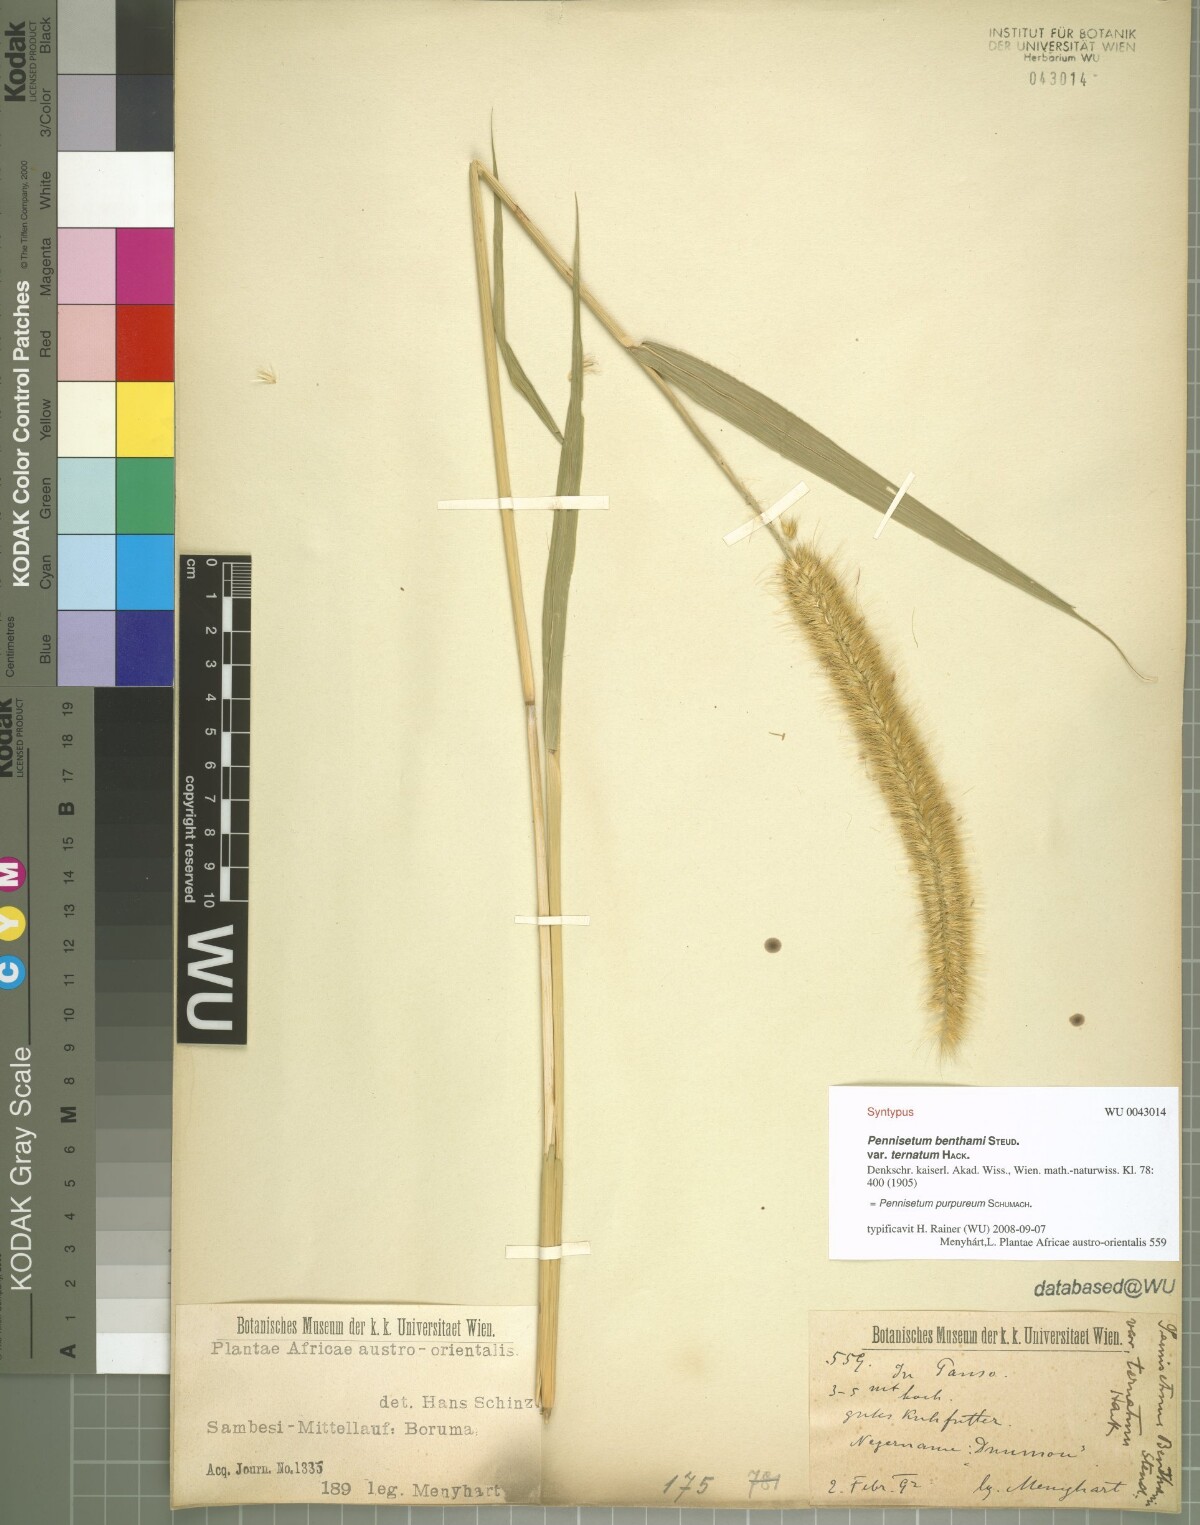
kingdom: Plantae
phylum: Tracheophyta
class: Liliopsida
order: Poales
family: Poaceae
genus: Cenchrus
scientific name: Cenchrus purpureus
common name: Elephant grass
